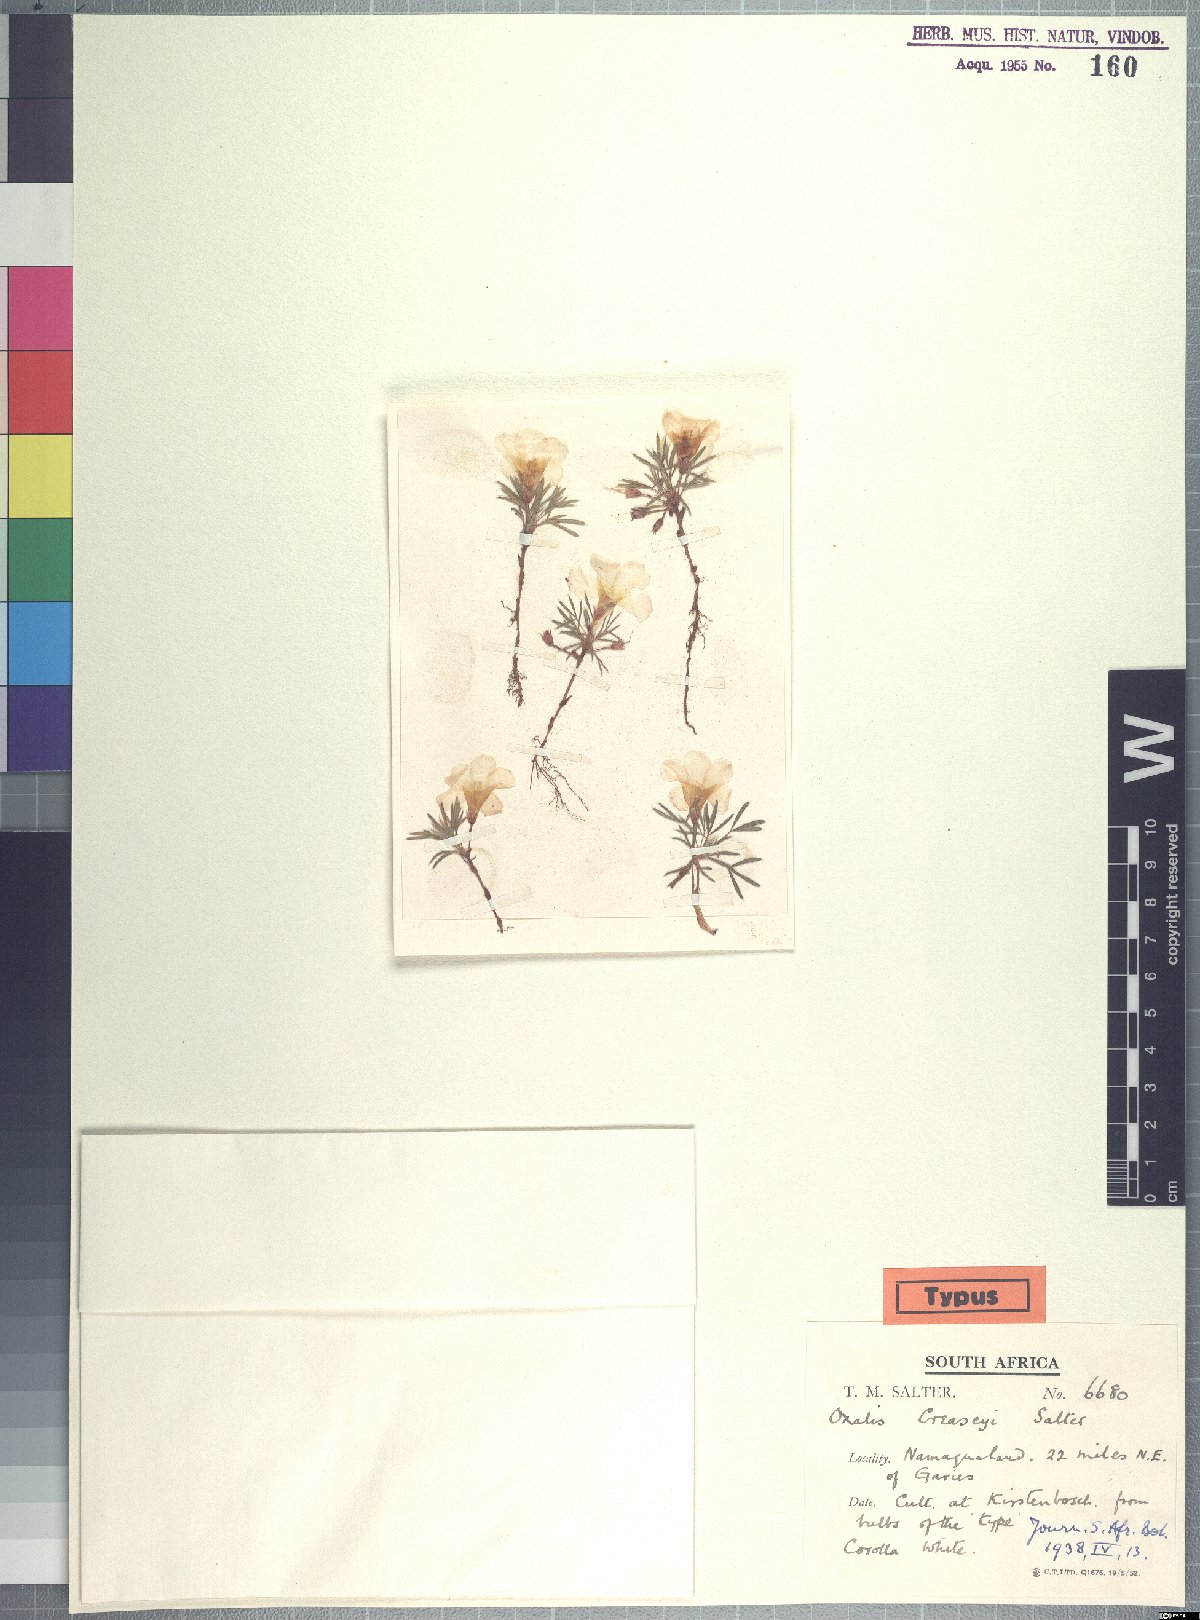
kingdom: Plantae
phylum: Tracheophyta
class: Magnoliopsida
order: Oxalidales
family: Oxalidaceae
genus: Oxalis
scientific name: Oxalis creaseyi
